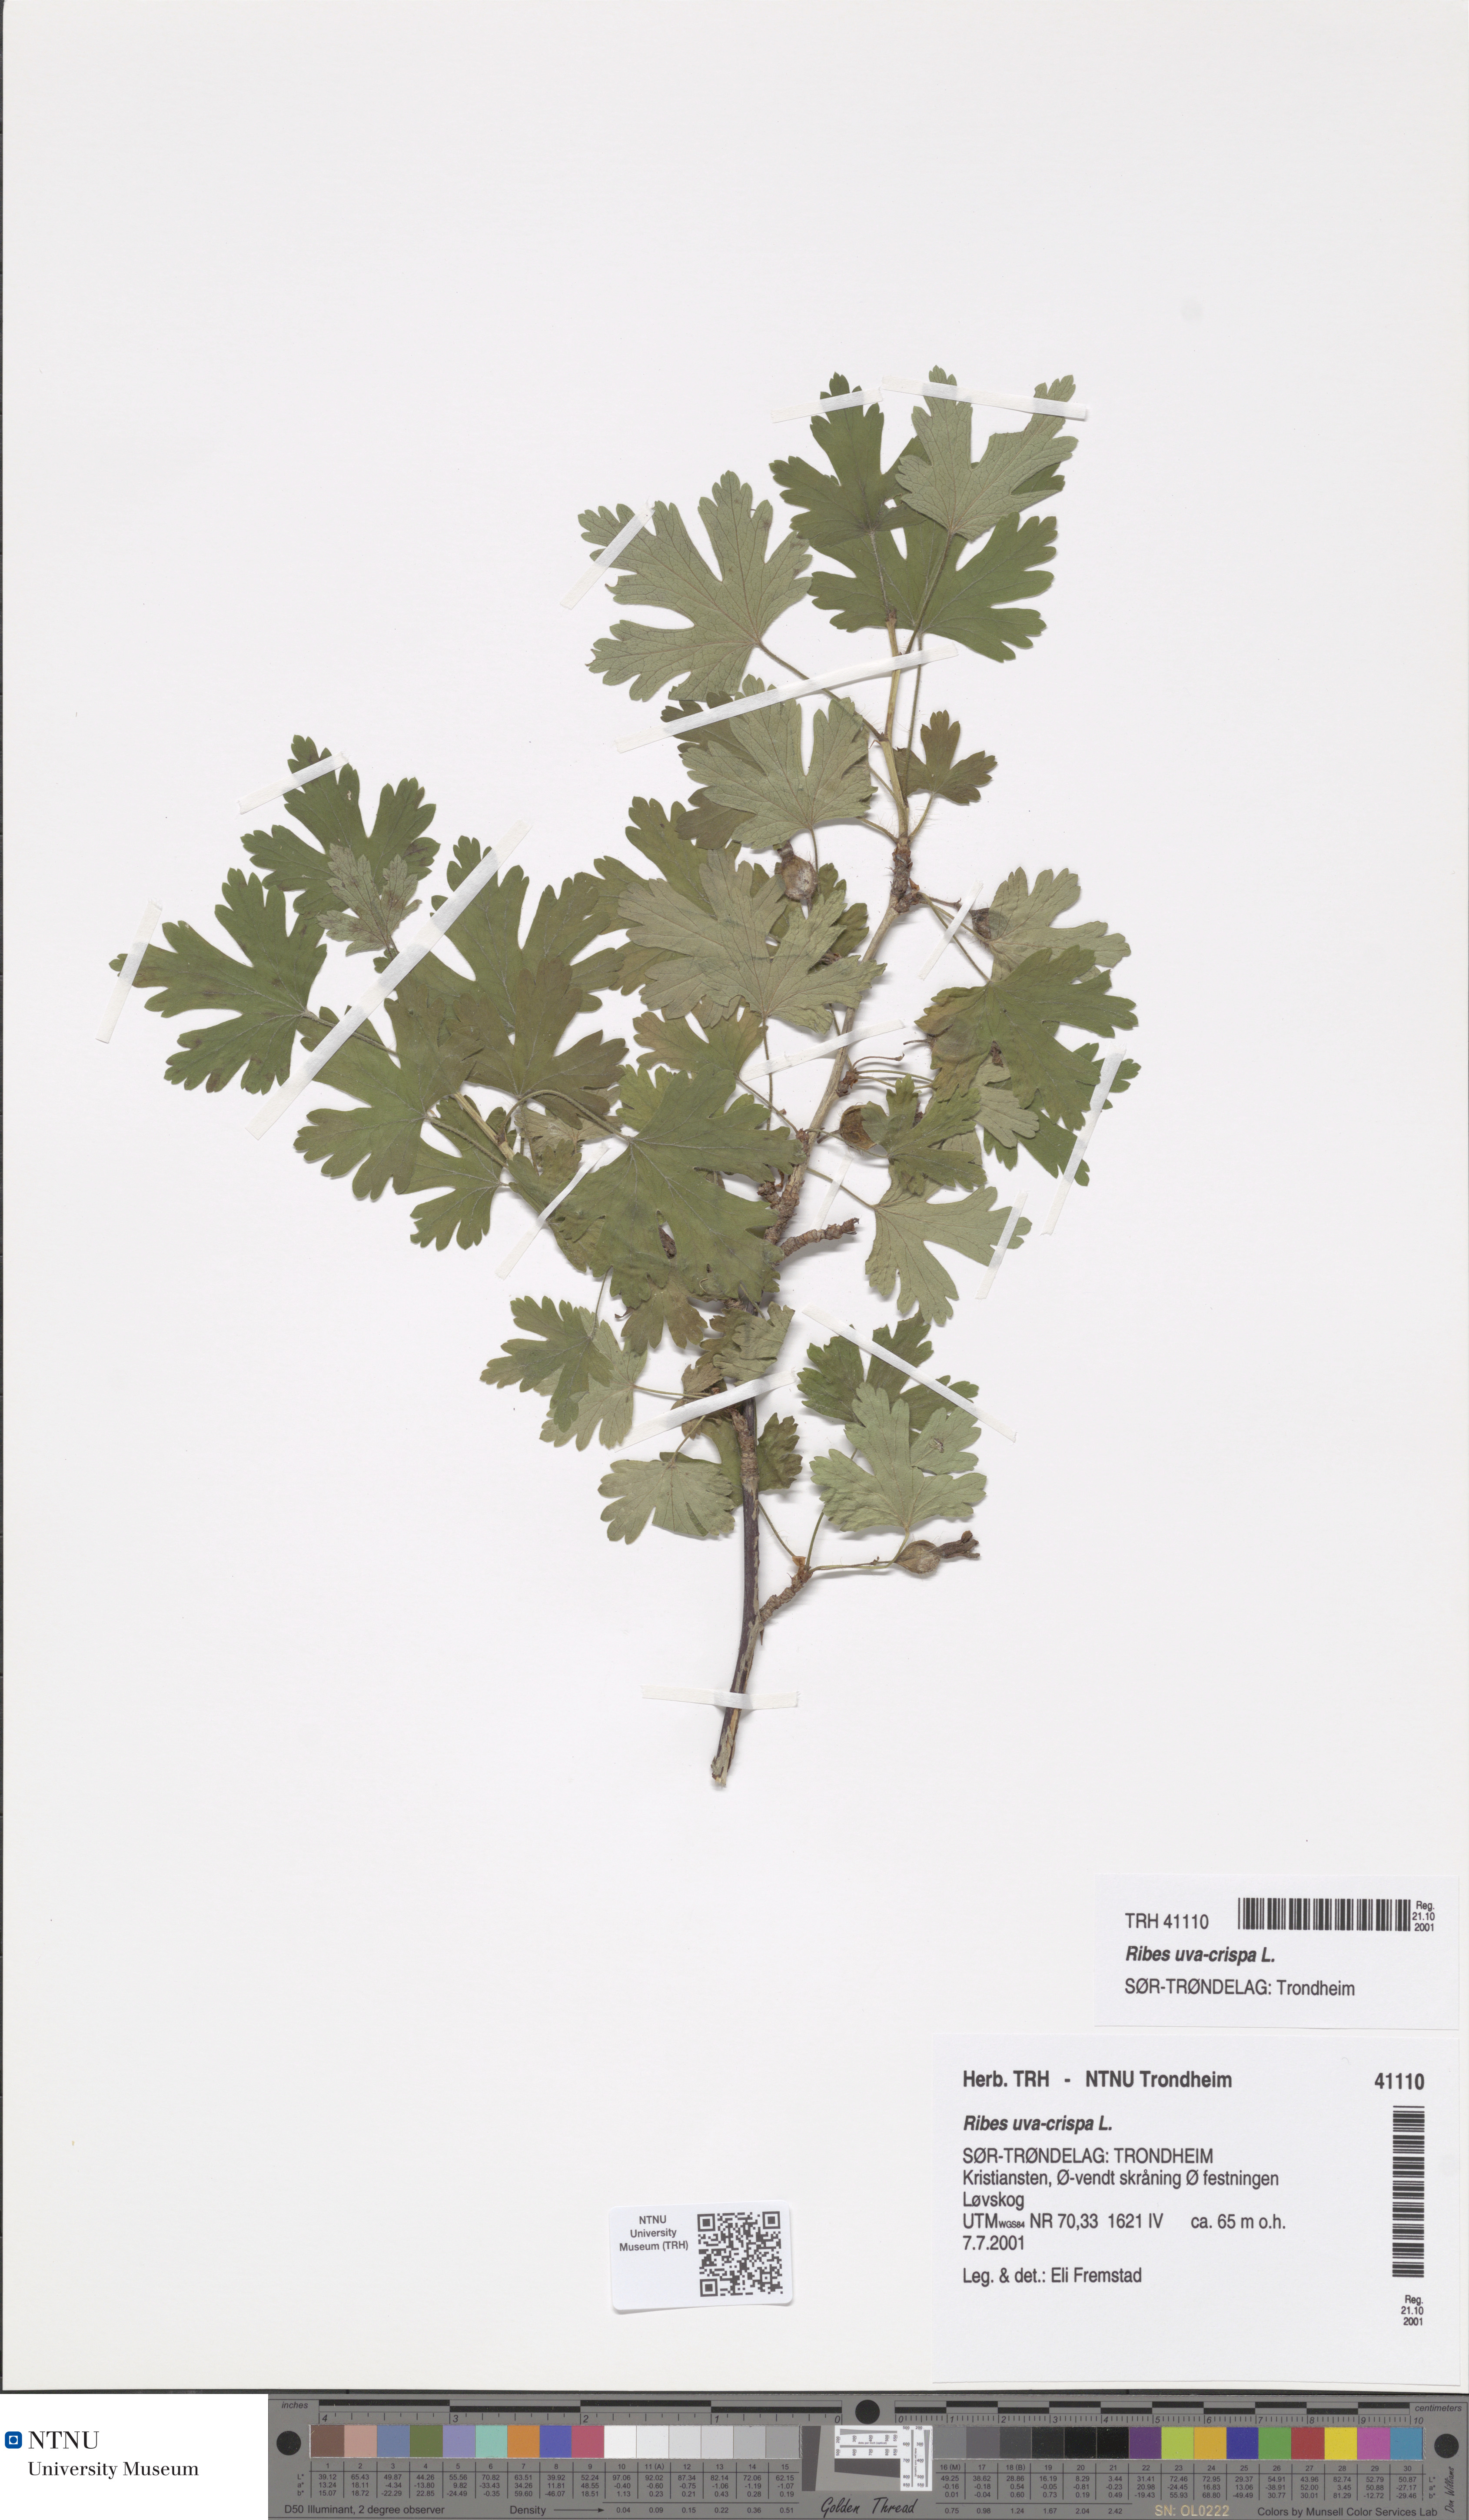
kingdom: Plantae
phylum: Tracheophyta
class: Magnoliopsida
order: Saxifragales
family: Grossulariaceae
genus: Ribes
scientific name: Ribes uva-crispa
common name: Gooseberry
